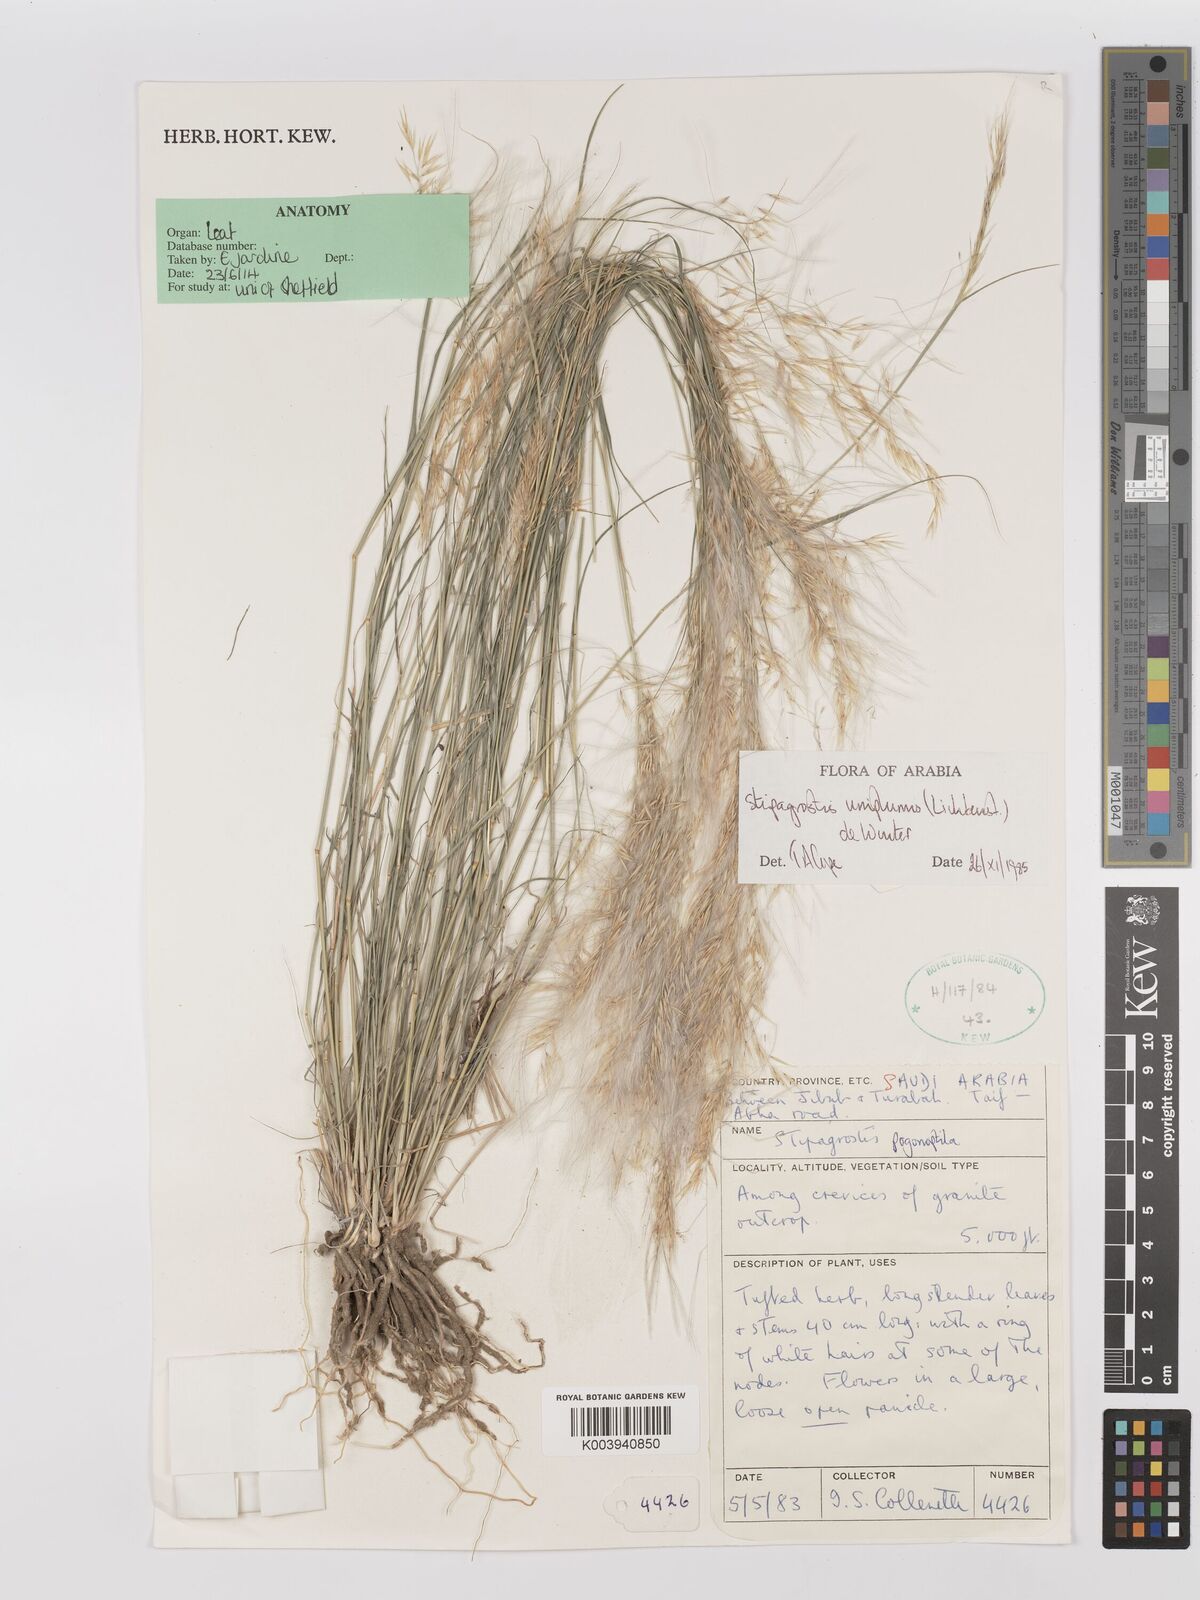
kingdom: Plantae
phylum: Tracheophyta
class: Liliopsida
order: Poales
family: Poaceae
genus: Stipagrostis
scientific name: Stipagrostis uniplumis
